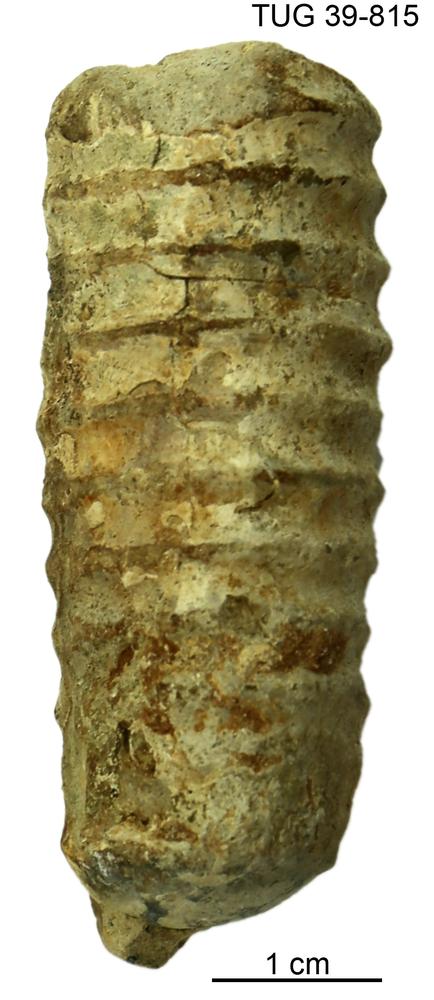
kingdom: Animalia
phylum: Mollusca
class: Cephalopoda
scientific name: Cephalopoda
